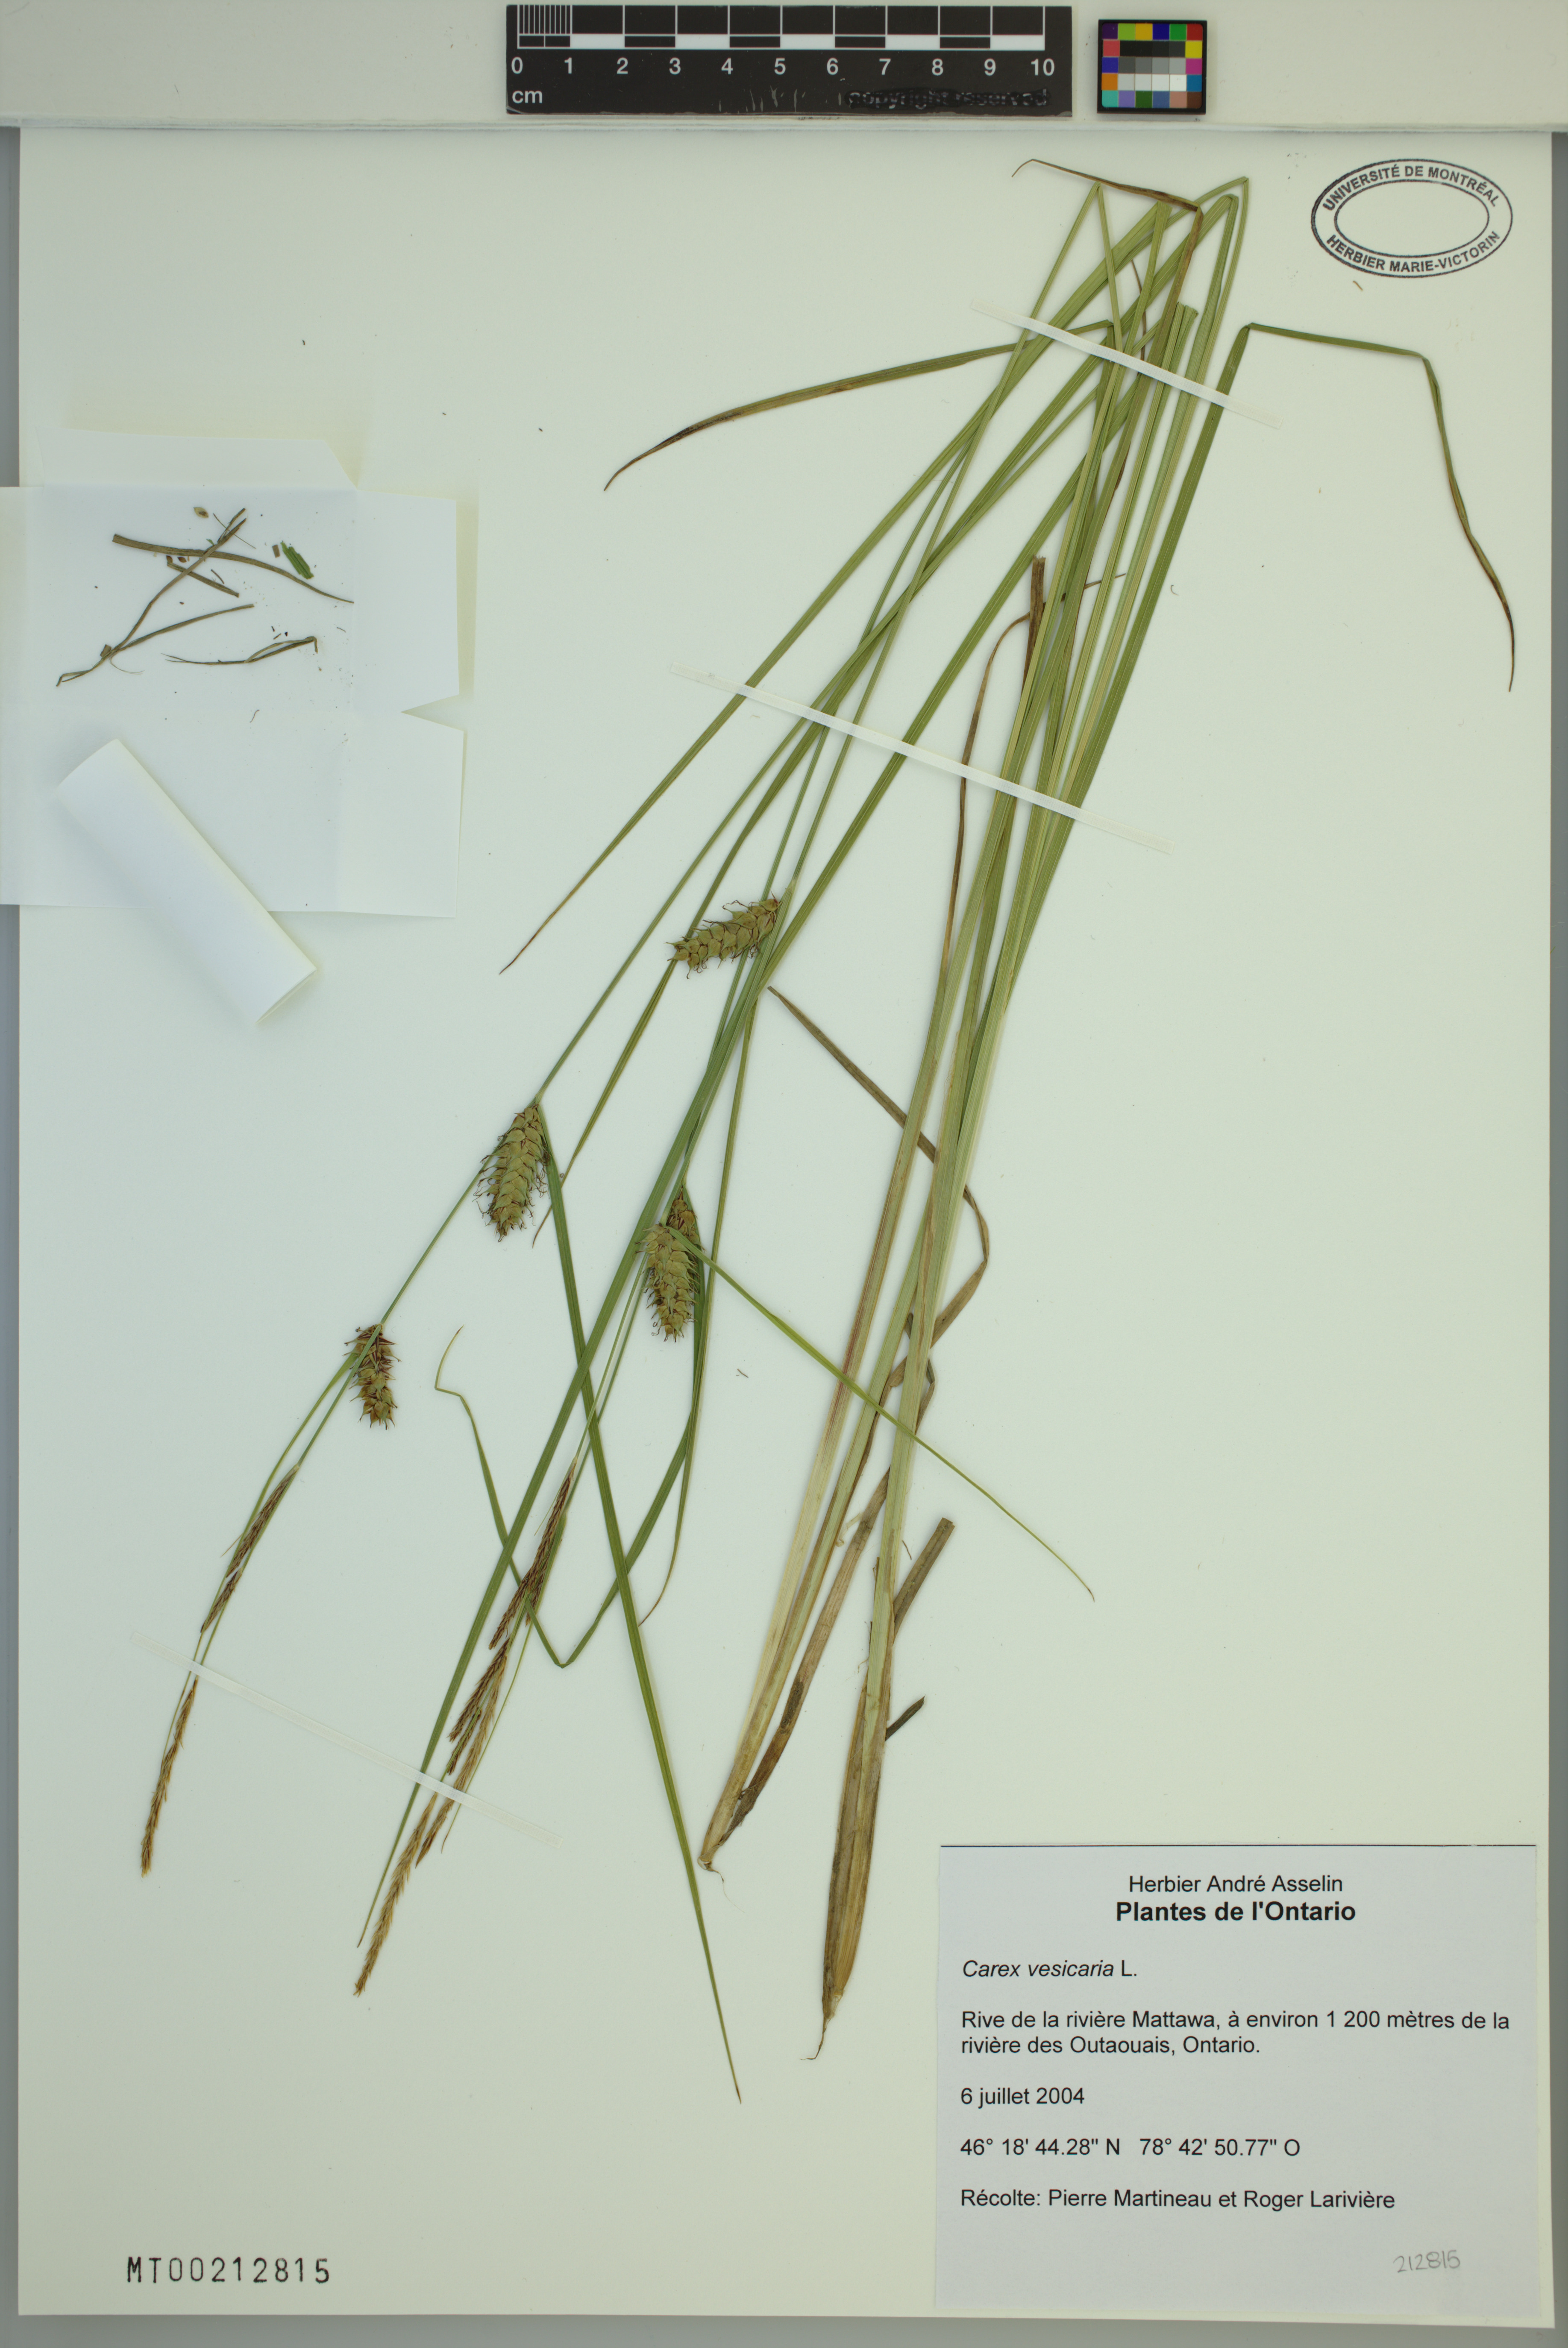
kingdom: Plantae
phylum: Tracheophyta
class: Liliopsida
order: Poales
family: Cyperaceae
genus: Carex
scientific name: Carex vesicaria
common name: Bladder-sedge
